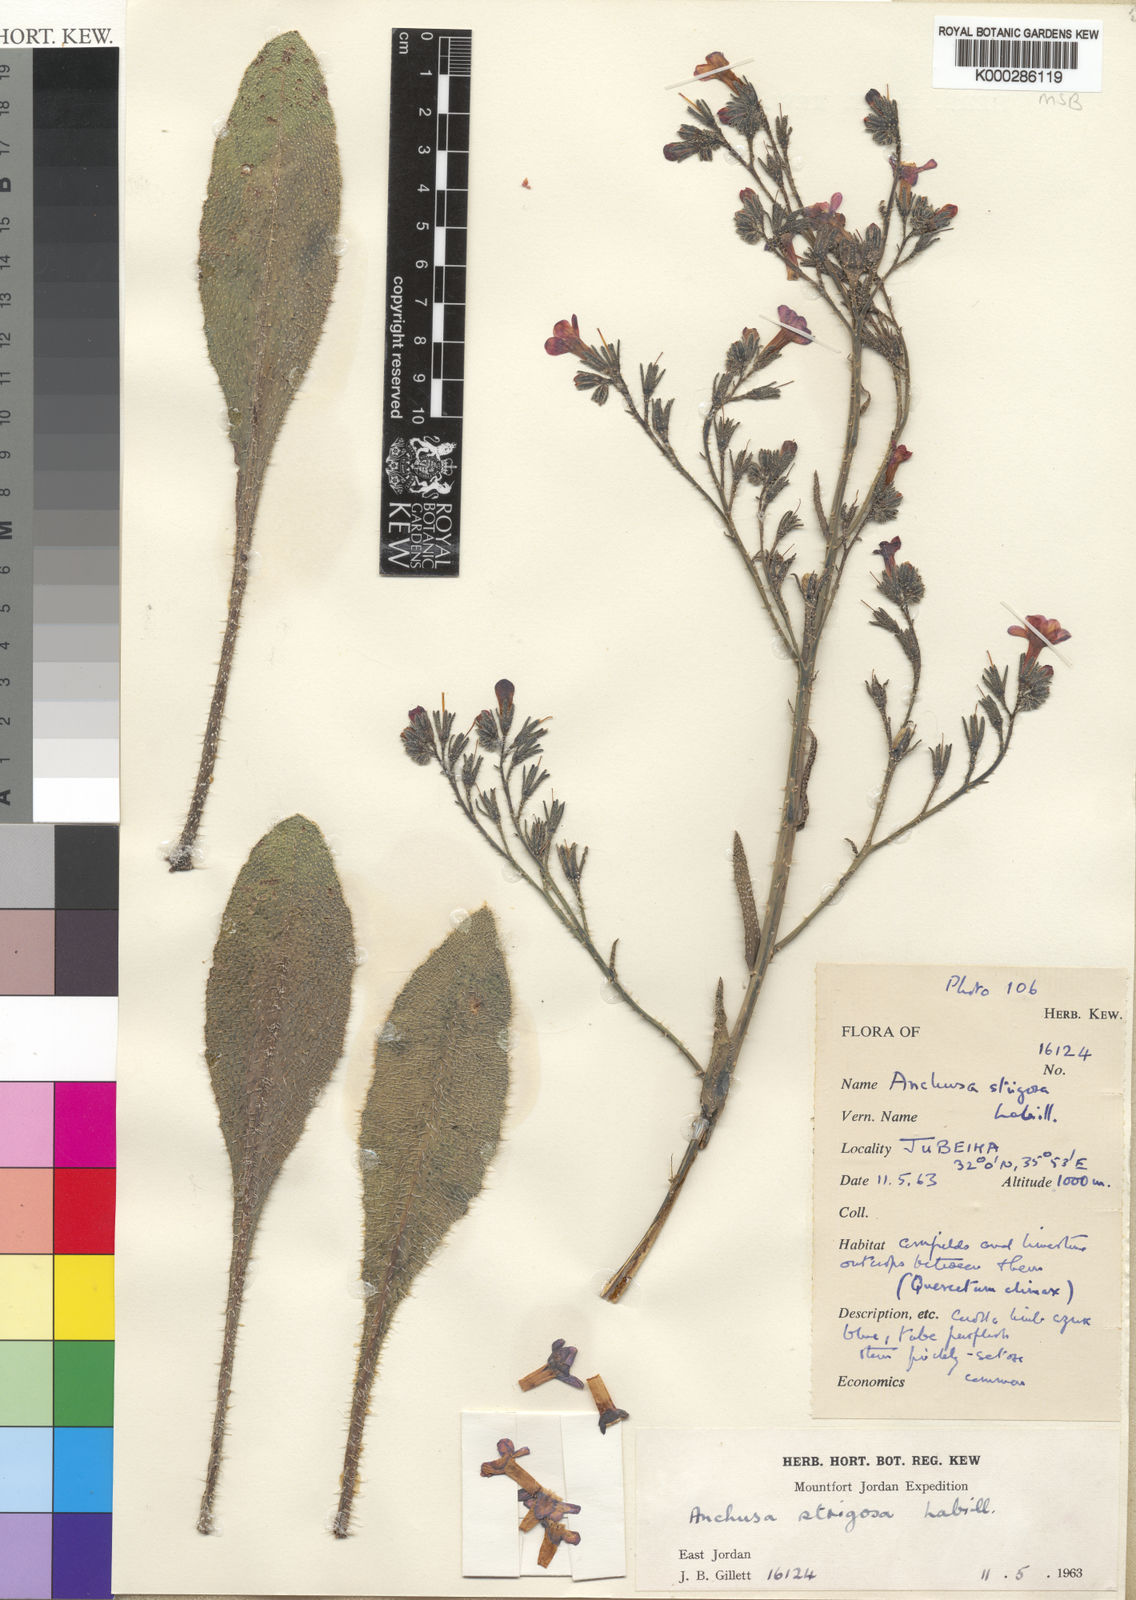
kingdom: Plantae
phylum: Tracheophyta
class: Magnoliopsida
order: Boraginales
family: Boraginaceae
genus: Anchusa
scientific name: Anchusa strigosa
